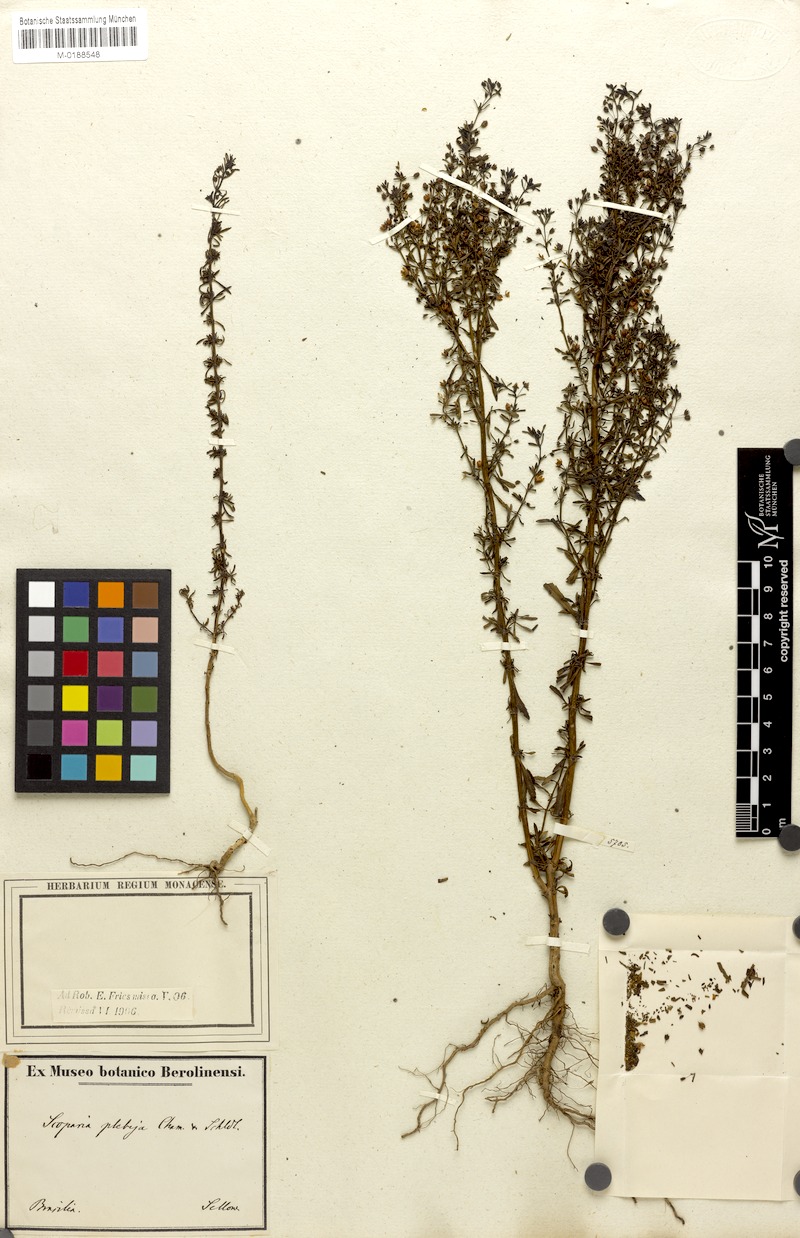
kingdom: Plantae
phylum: Tracheophyta
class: Magnoliopsida
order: Lamiales
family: Plantaginaceae
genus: Scoparia
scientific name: Scoparia ericacea
